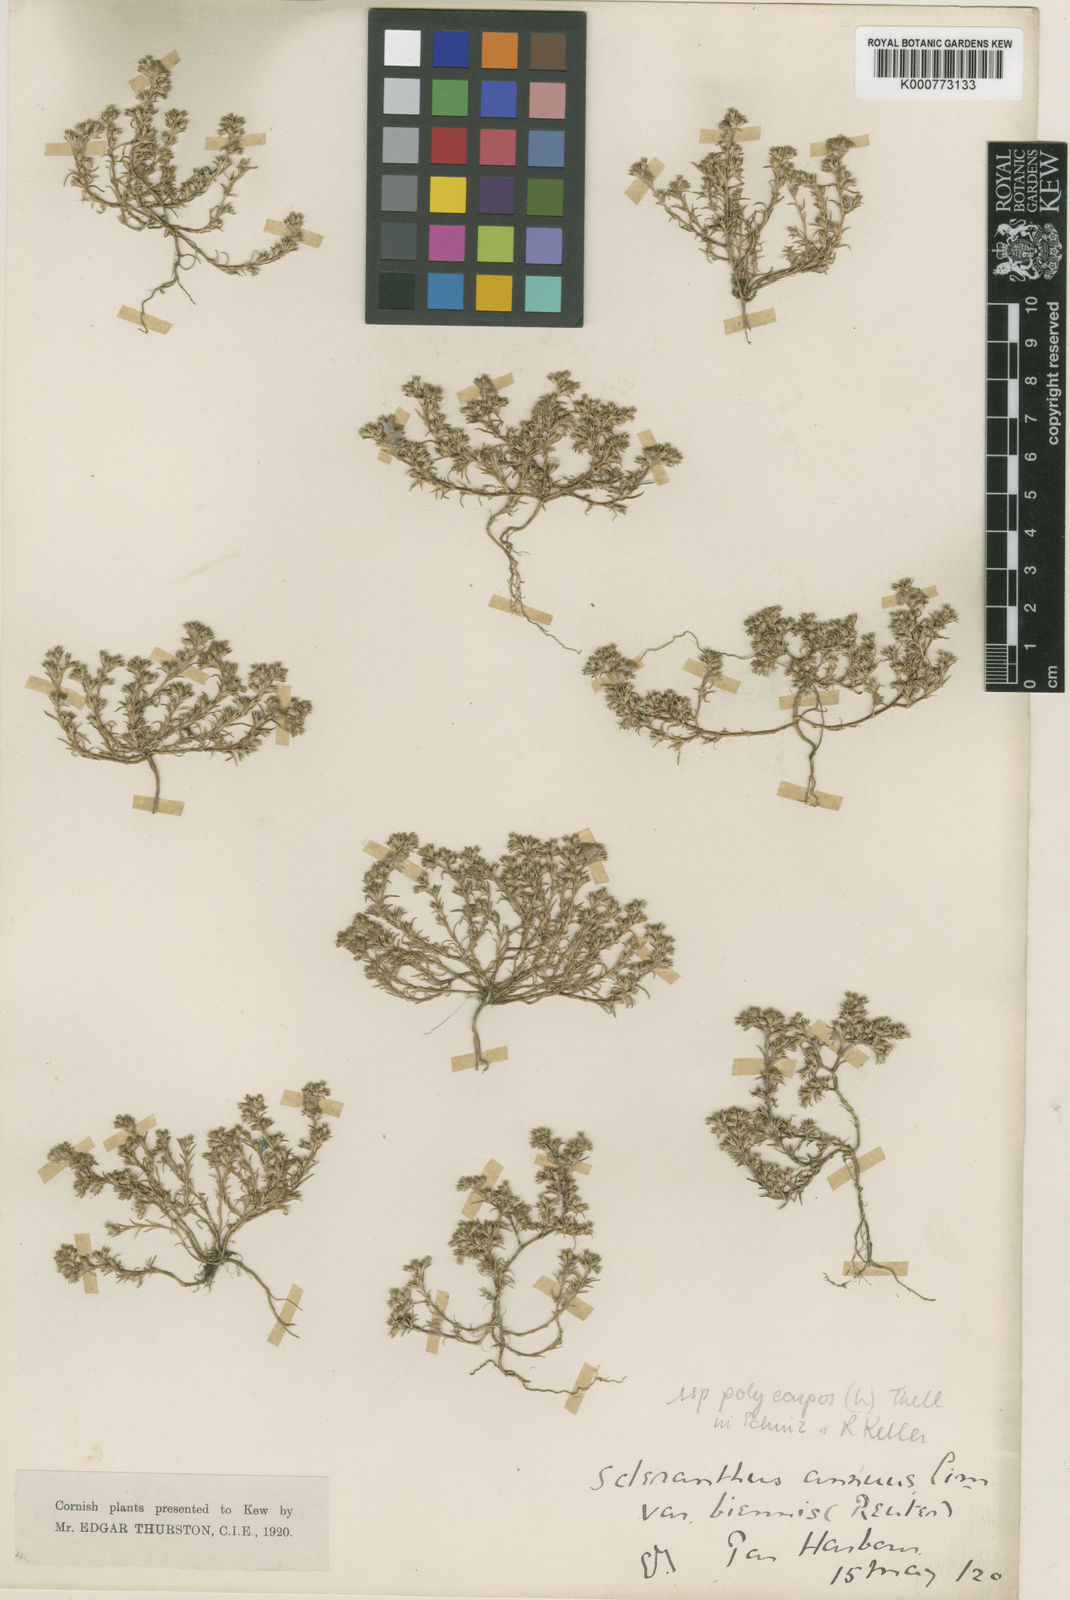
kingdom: Plantae
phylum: Tracheophyta
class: Magnoliopsida
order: Caryophyllales
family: Caryophyllaceae
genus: Scleranthus
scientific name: Scleranthus annuus
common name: Annual knawel
